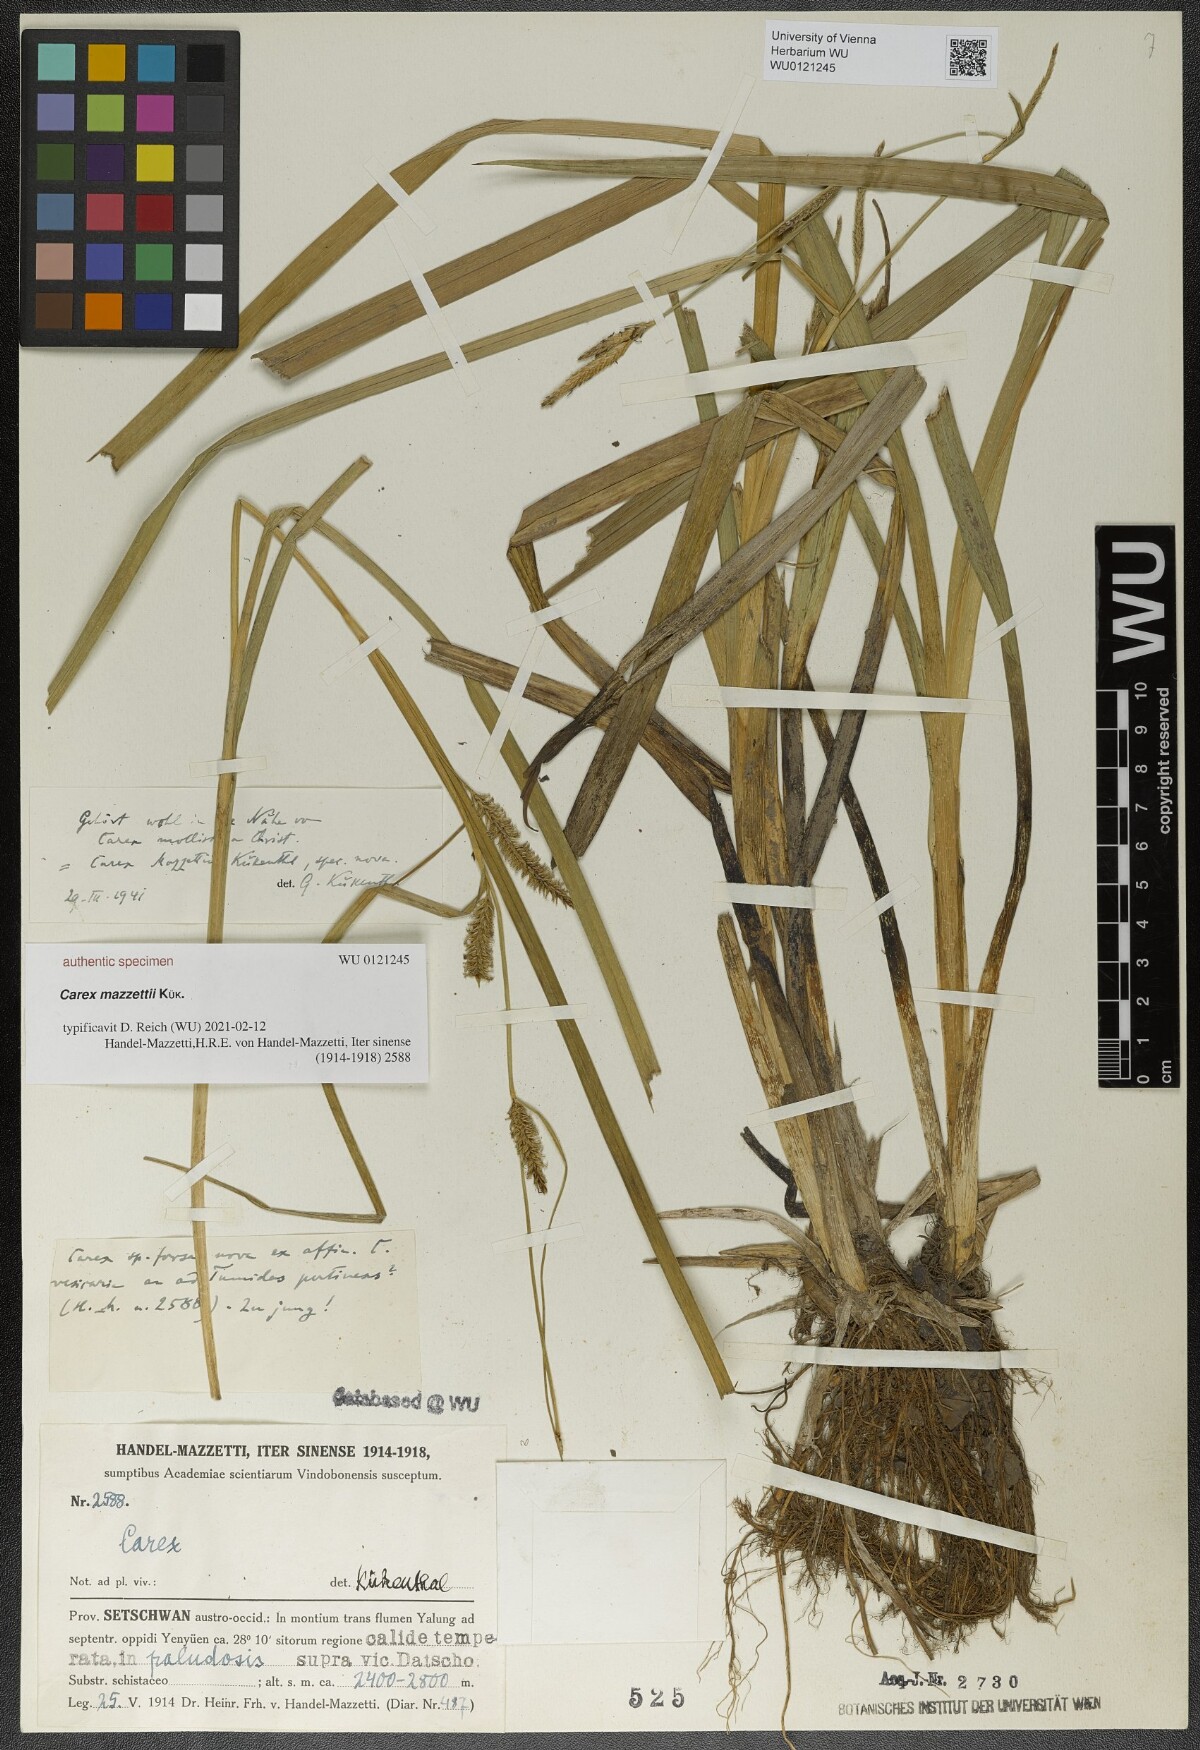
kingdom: Plantae
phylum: Tracheophyta
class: Liliopsida
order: Poales
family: Cyperaceae
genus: Carex
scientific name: Carex
